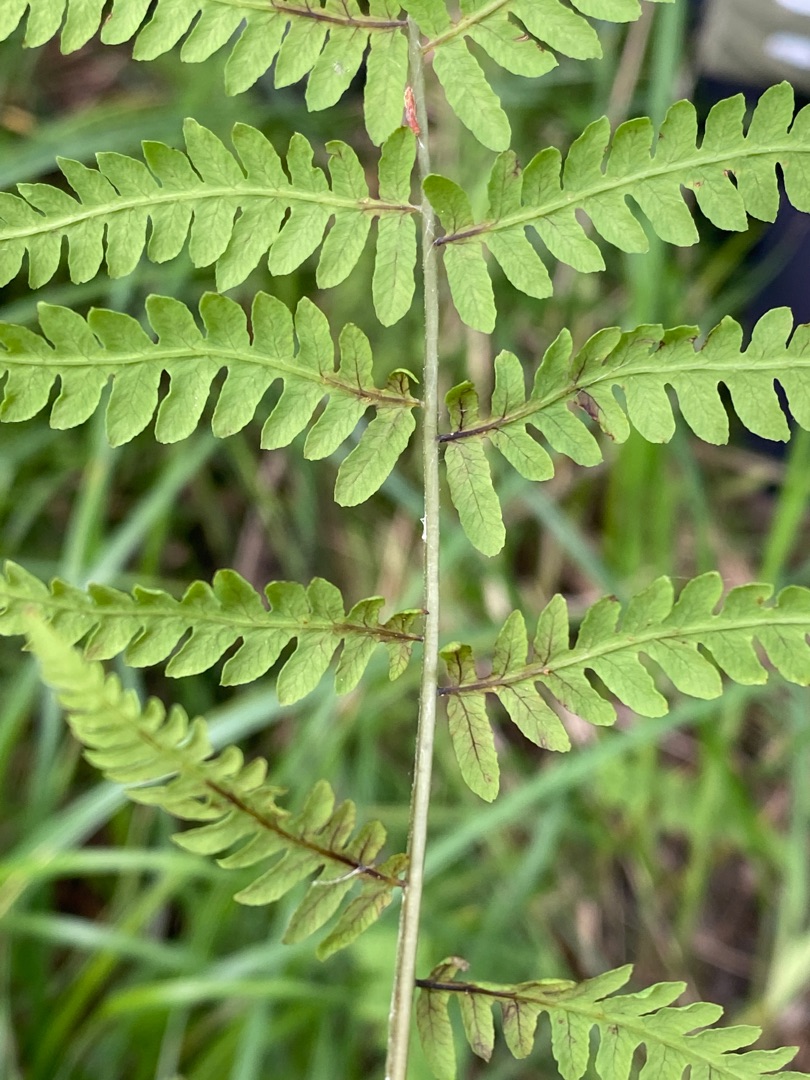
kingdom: Plantae
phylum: Tracheophyta
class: Polypodiopsida
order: Polypodiales
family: Thelypteridaceae
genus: Thelypteris
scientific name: Thelypteris palustris
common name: Kærmangeløv
